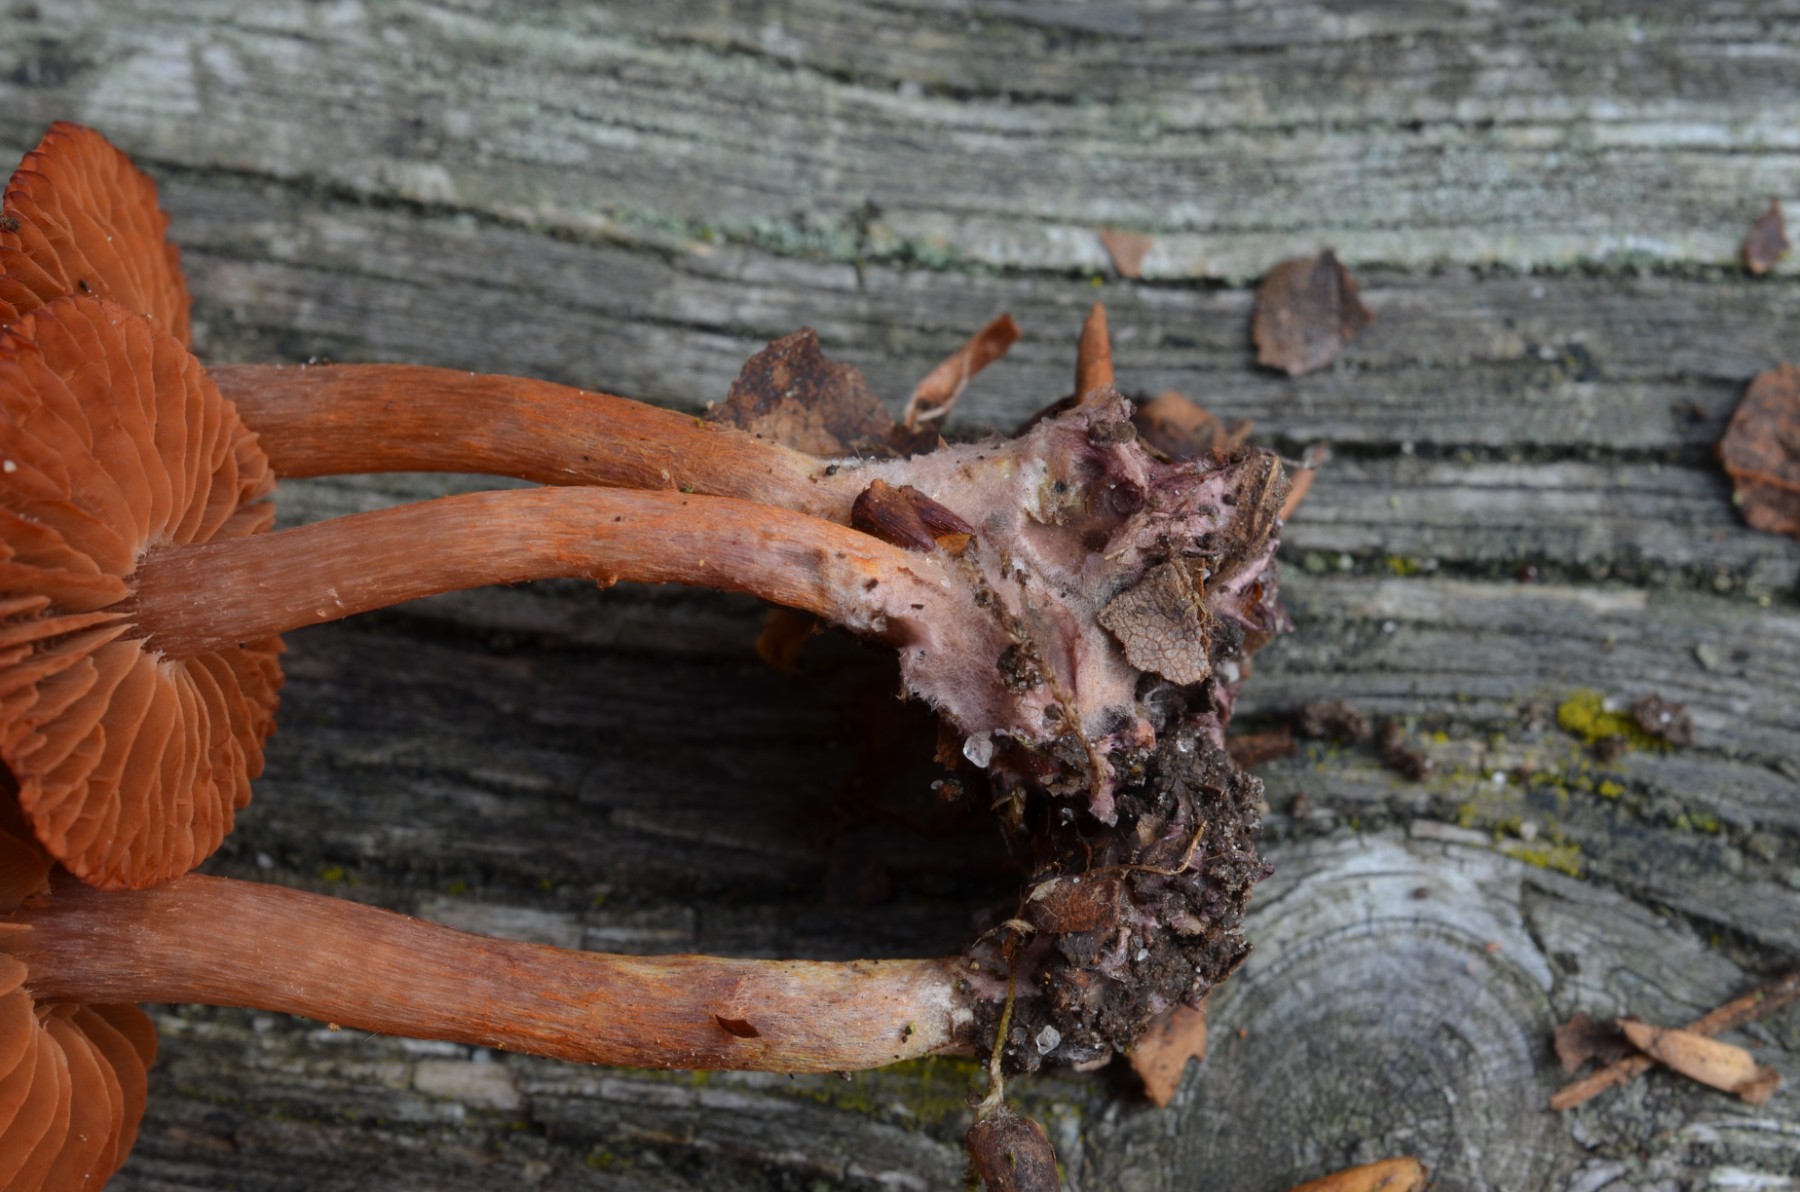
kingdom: Fungi
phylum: Basidiomycota
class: Agaricomycetes
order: Agaricales
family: Cortinariaceae
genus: Cortinarius
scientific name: Cortinarius
